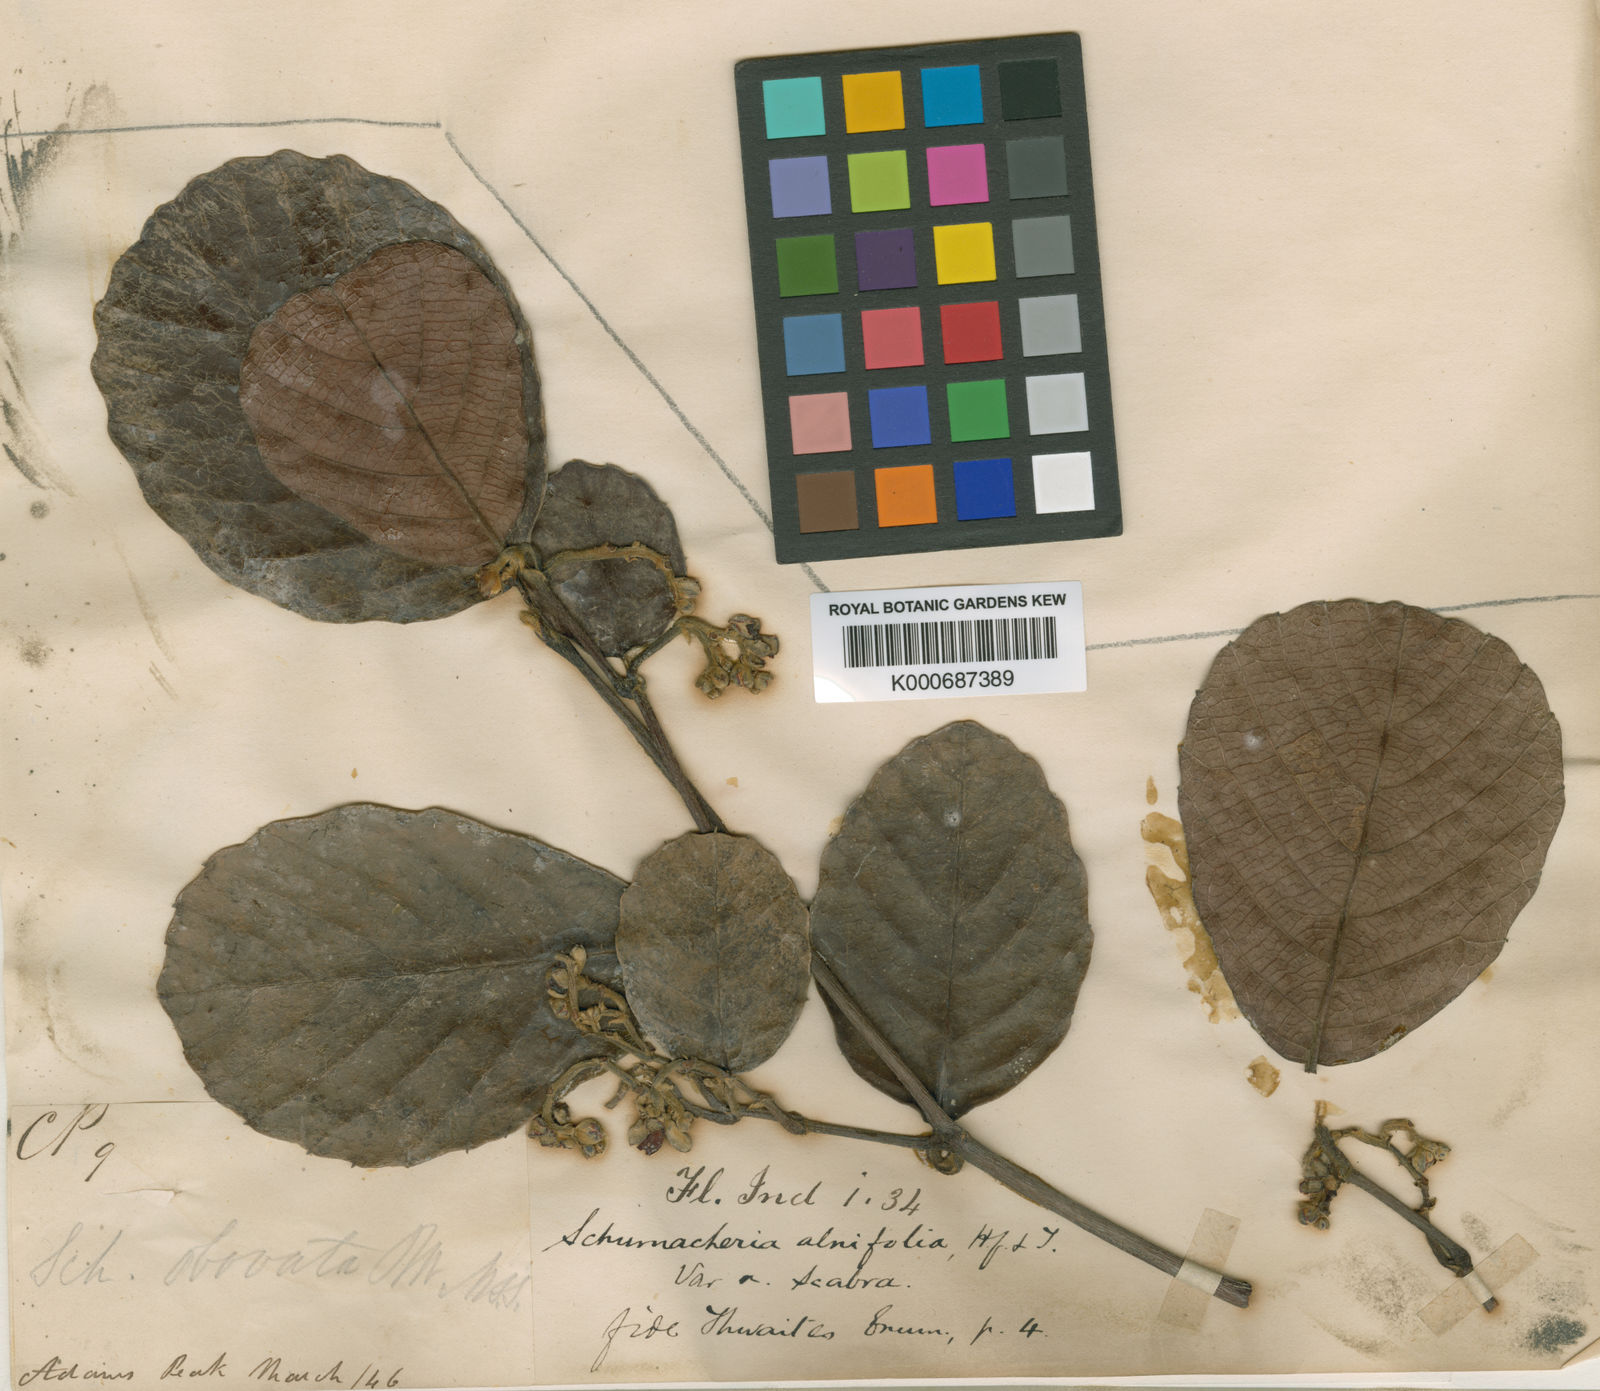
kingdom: Plantae
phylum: Tracheophyta
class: Magnoliopsida
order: Dilleniales
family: Dilleniaceae
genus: Schumacheria
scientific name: Schumacheria alnifolia
